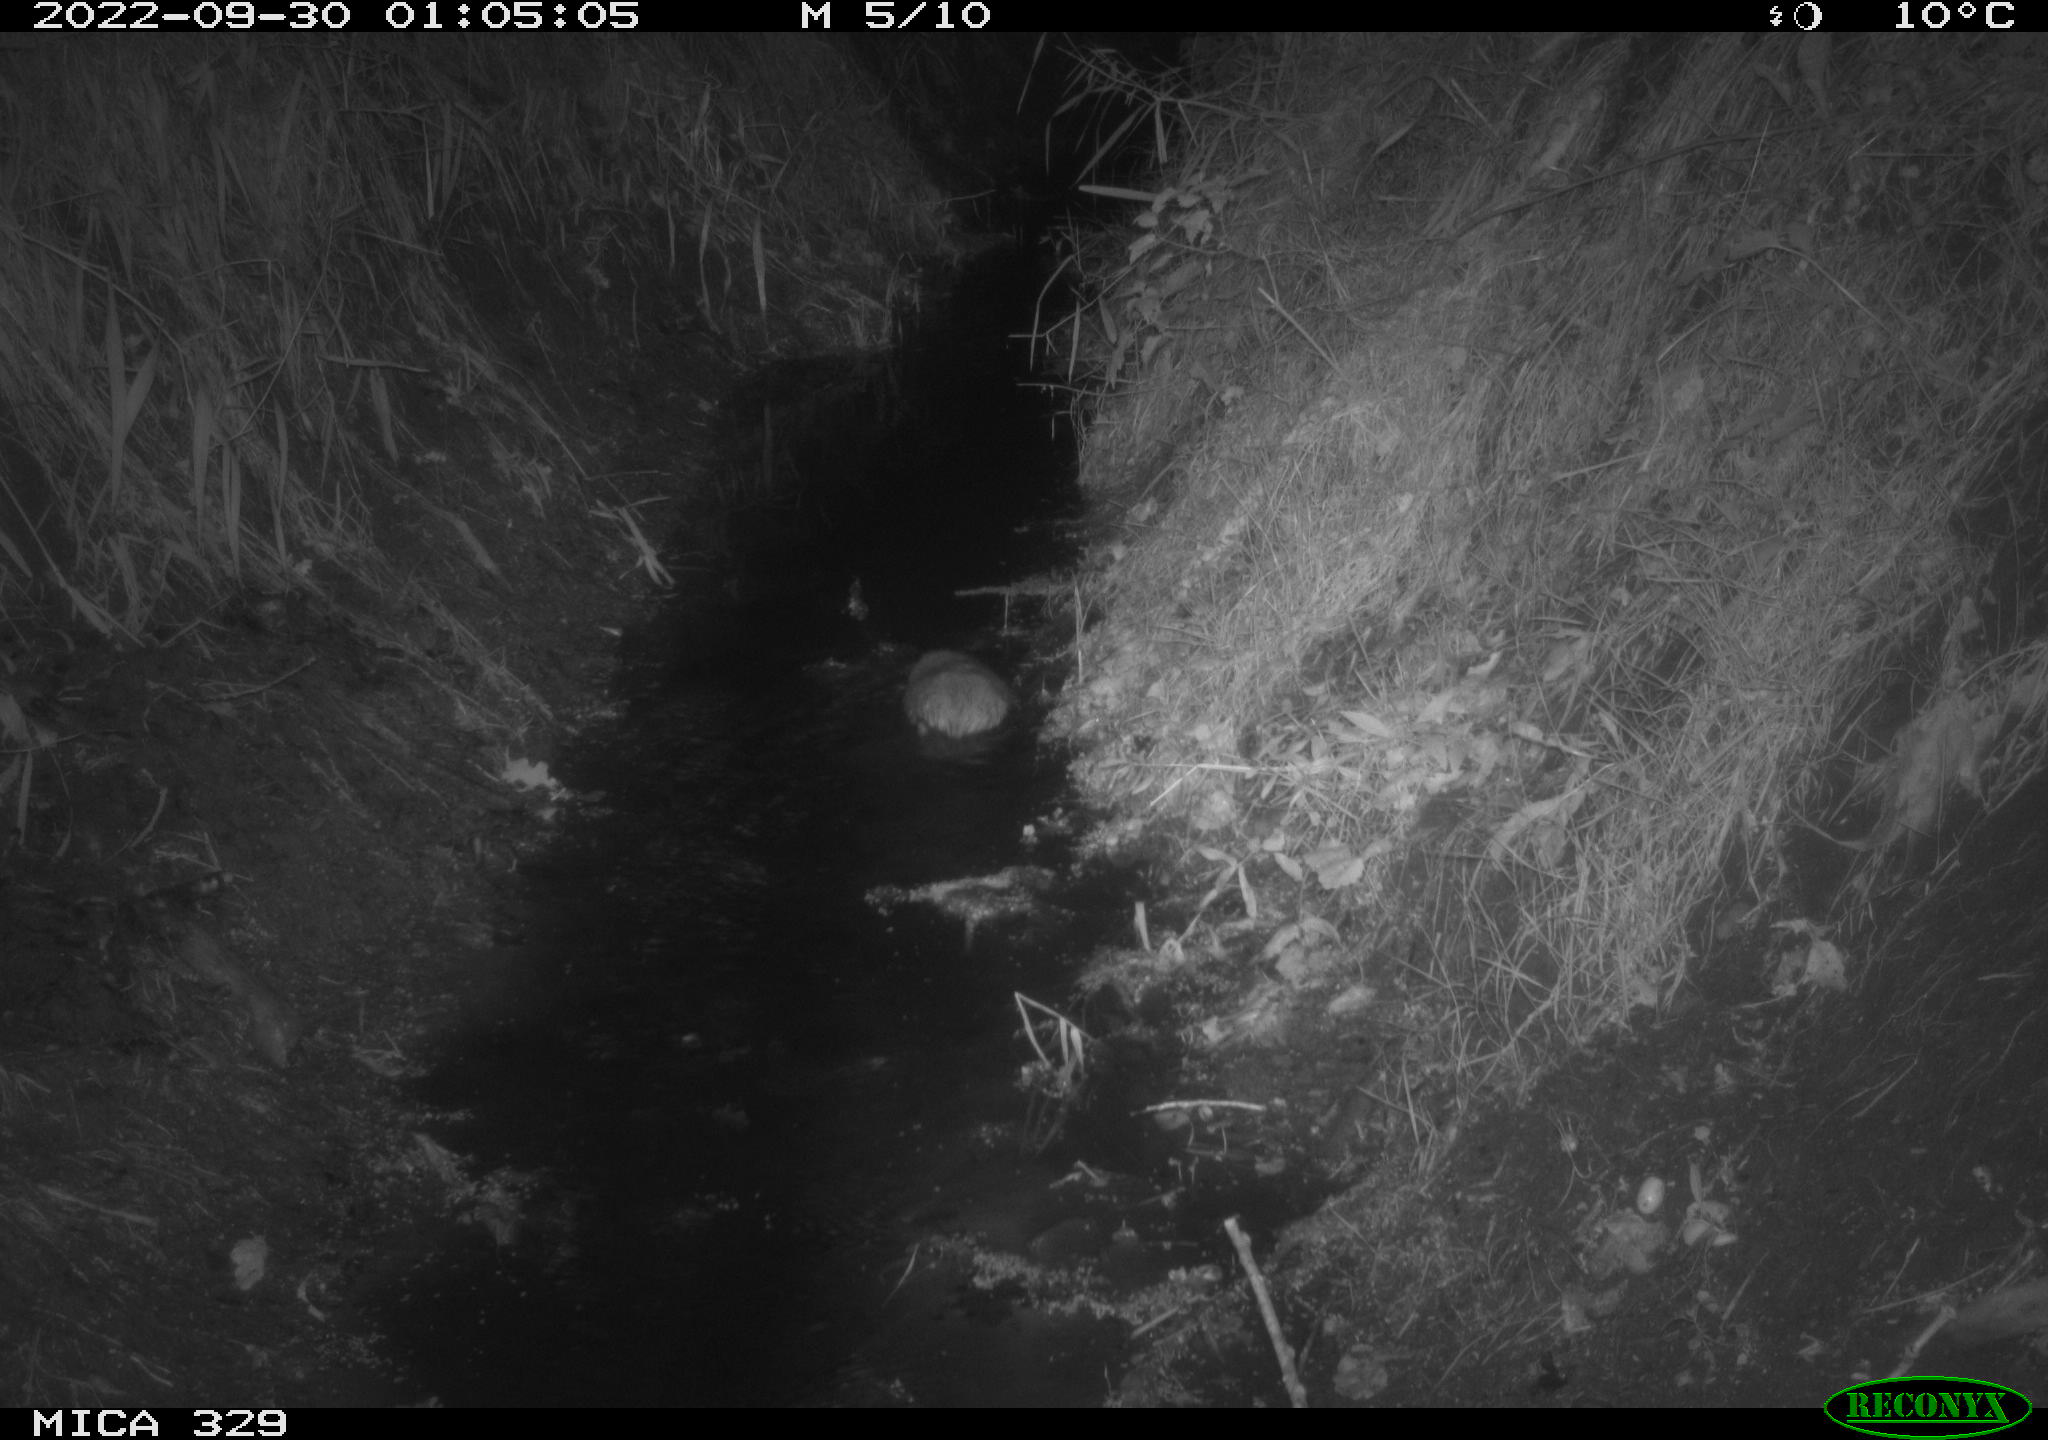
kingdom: Animalia
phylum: Chordata
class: Mammalia
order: Rodentia
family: Cricetidae
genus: Ondatra
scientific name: Ondatra zibethicus
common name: Muskrat
